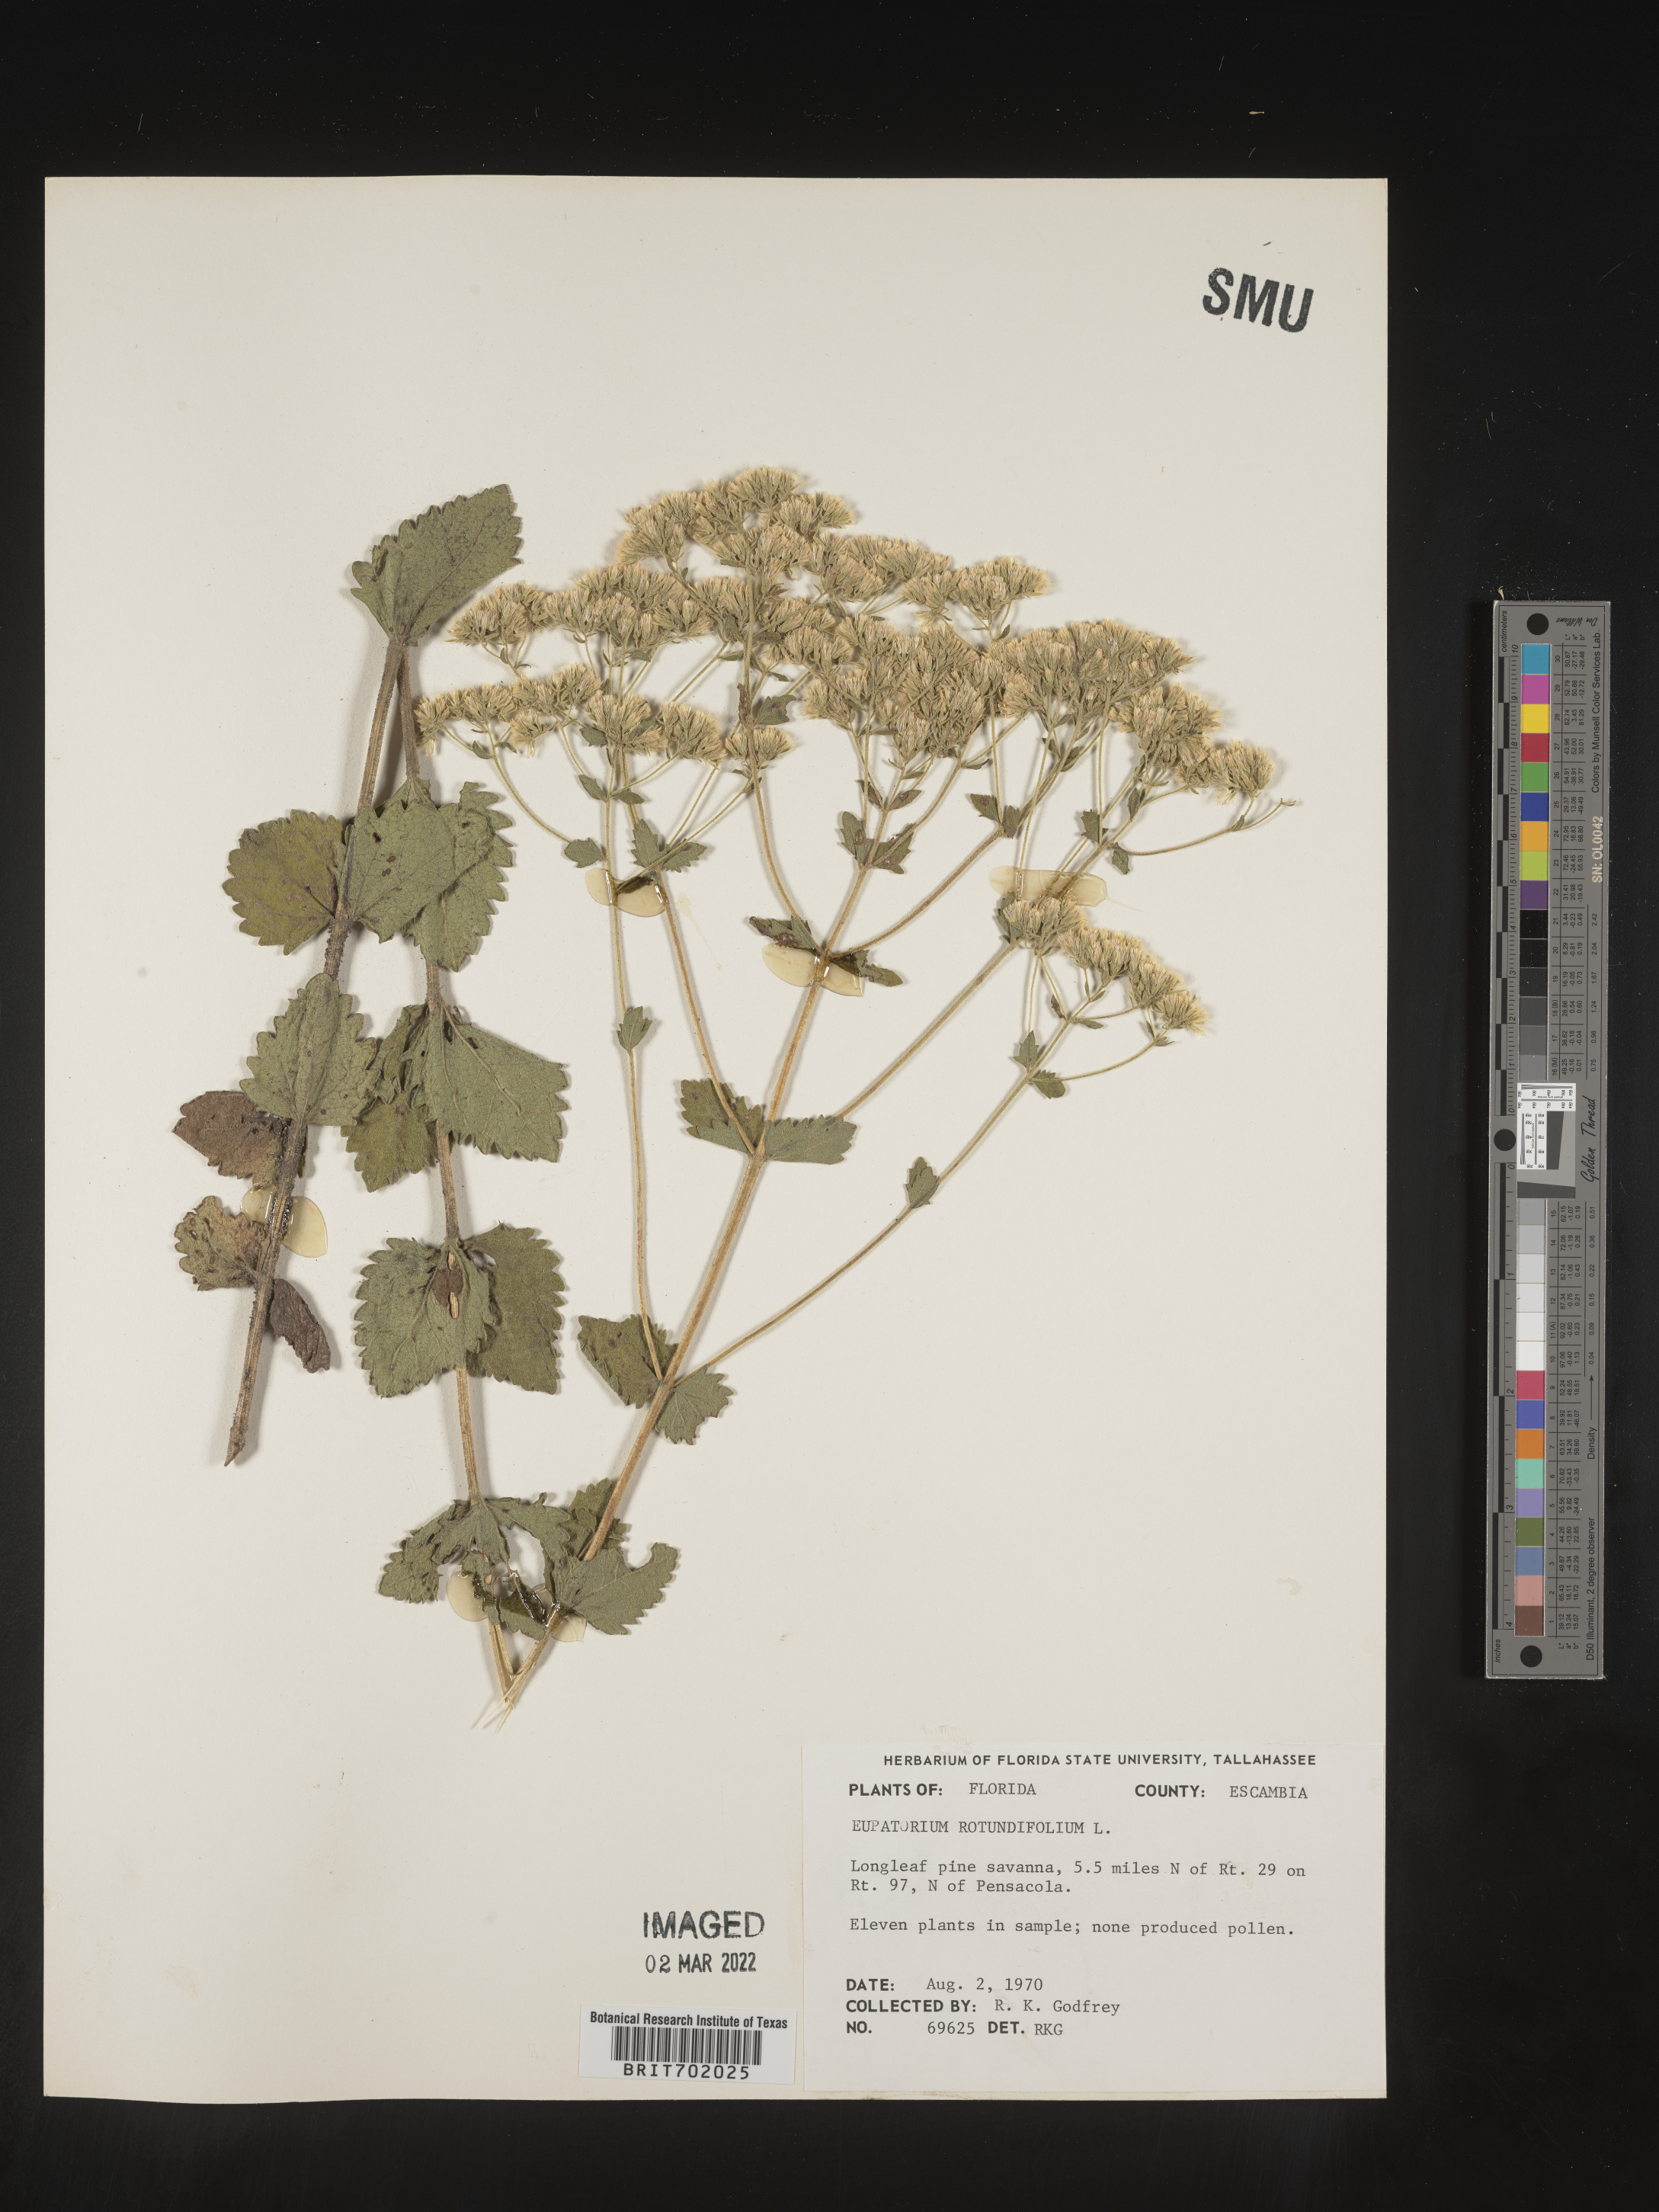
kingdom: Plantae
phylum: Tracheophyta
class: Magnoliopsida
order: Asterales
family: Asteraceae
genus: Eupatorium
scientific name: Eupatorium rotundifolium
